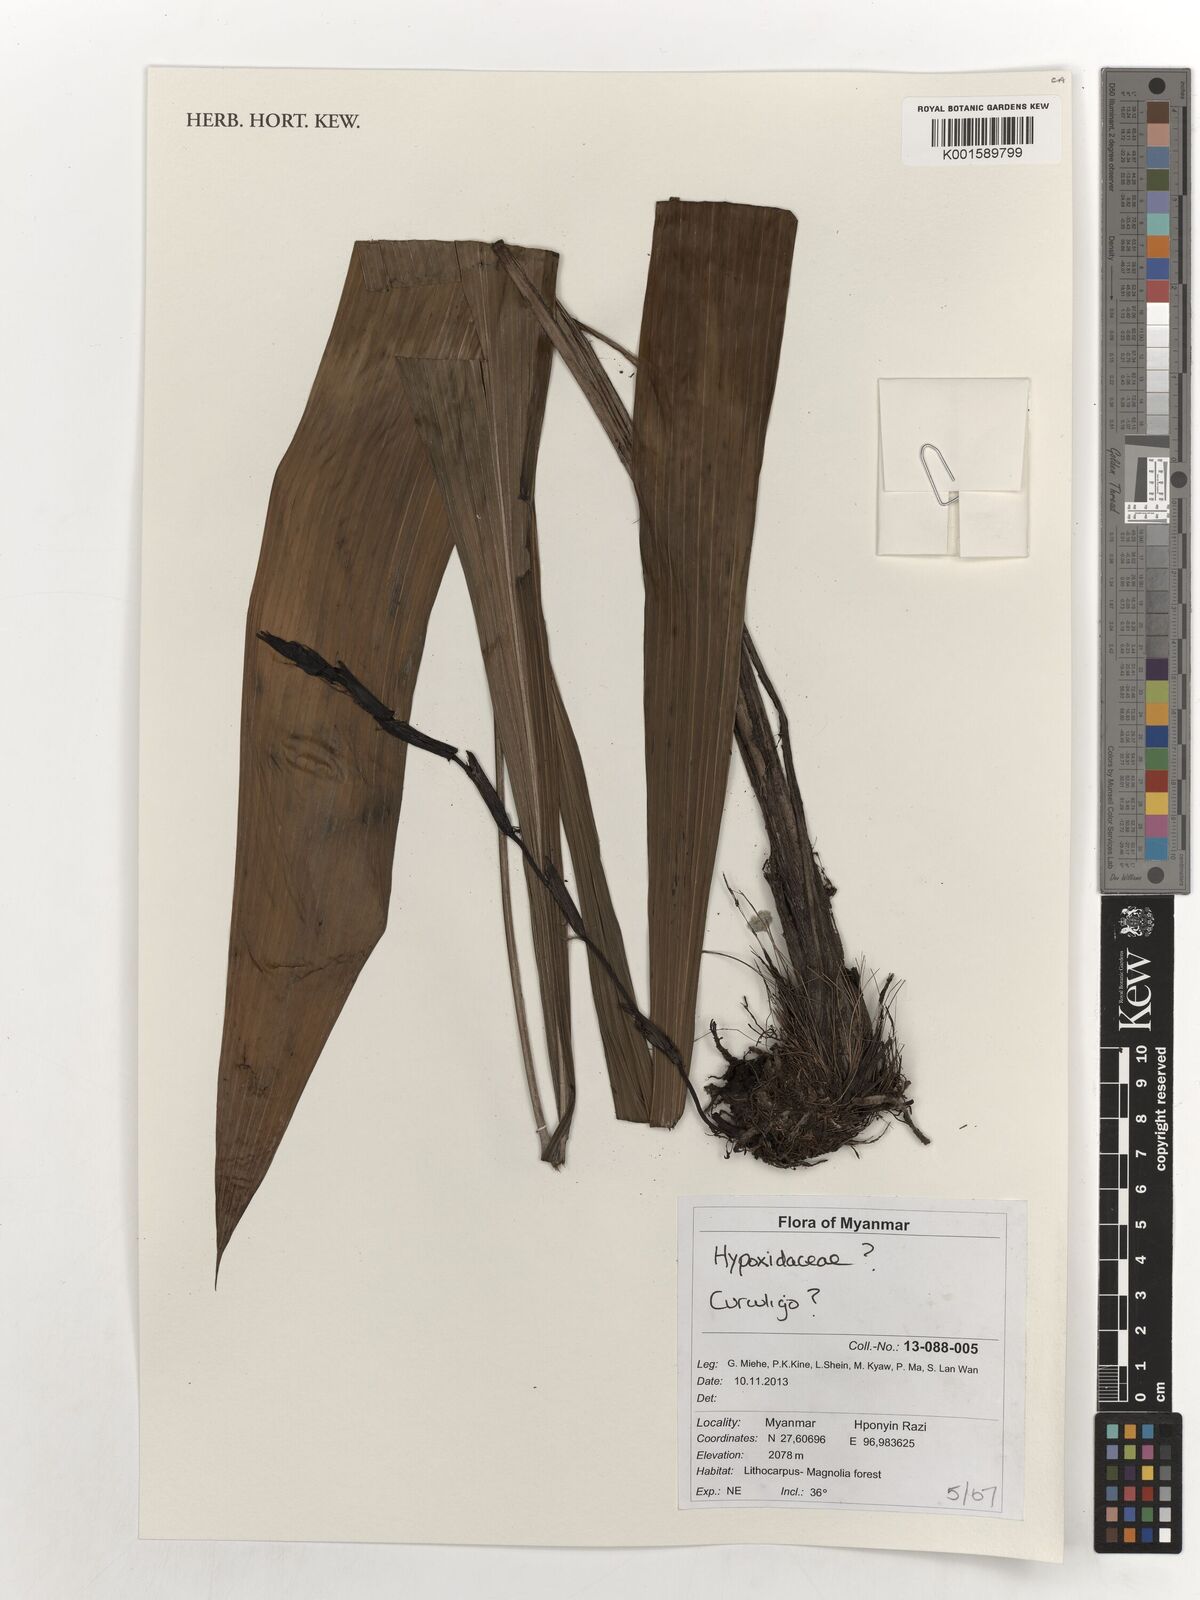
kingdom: Plantae
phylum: Tracheophyta
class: Liliopsida
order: Asparagales
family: Hypoxidaceae
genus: Curculigo
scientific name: Curculigo
